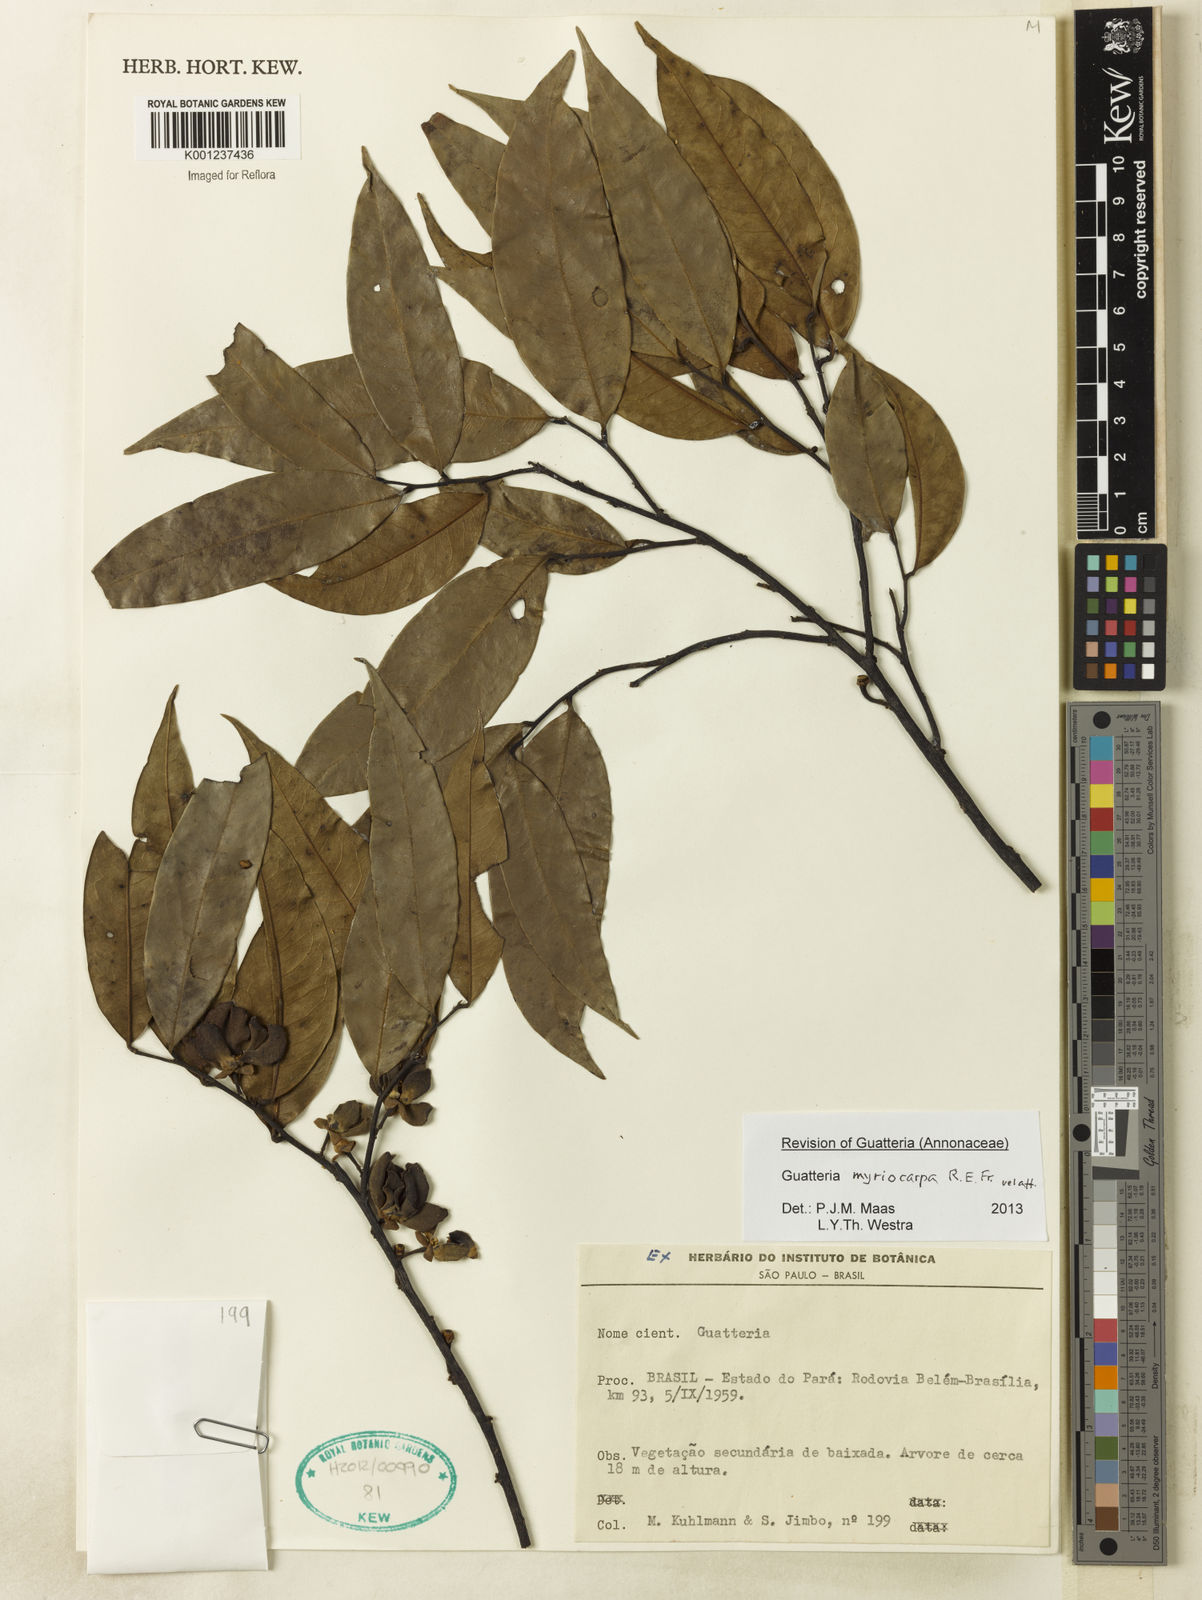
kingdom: Plantae
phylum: Tracheophyta
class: Magnoliopsida
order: Magnoliales
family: Annonaceae
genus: Guatteria
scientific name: Guatteria myriocarpa
